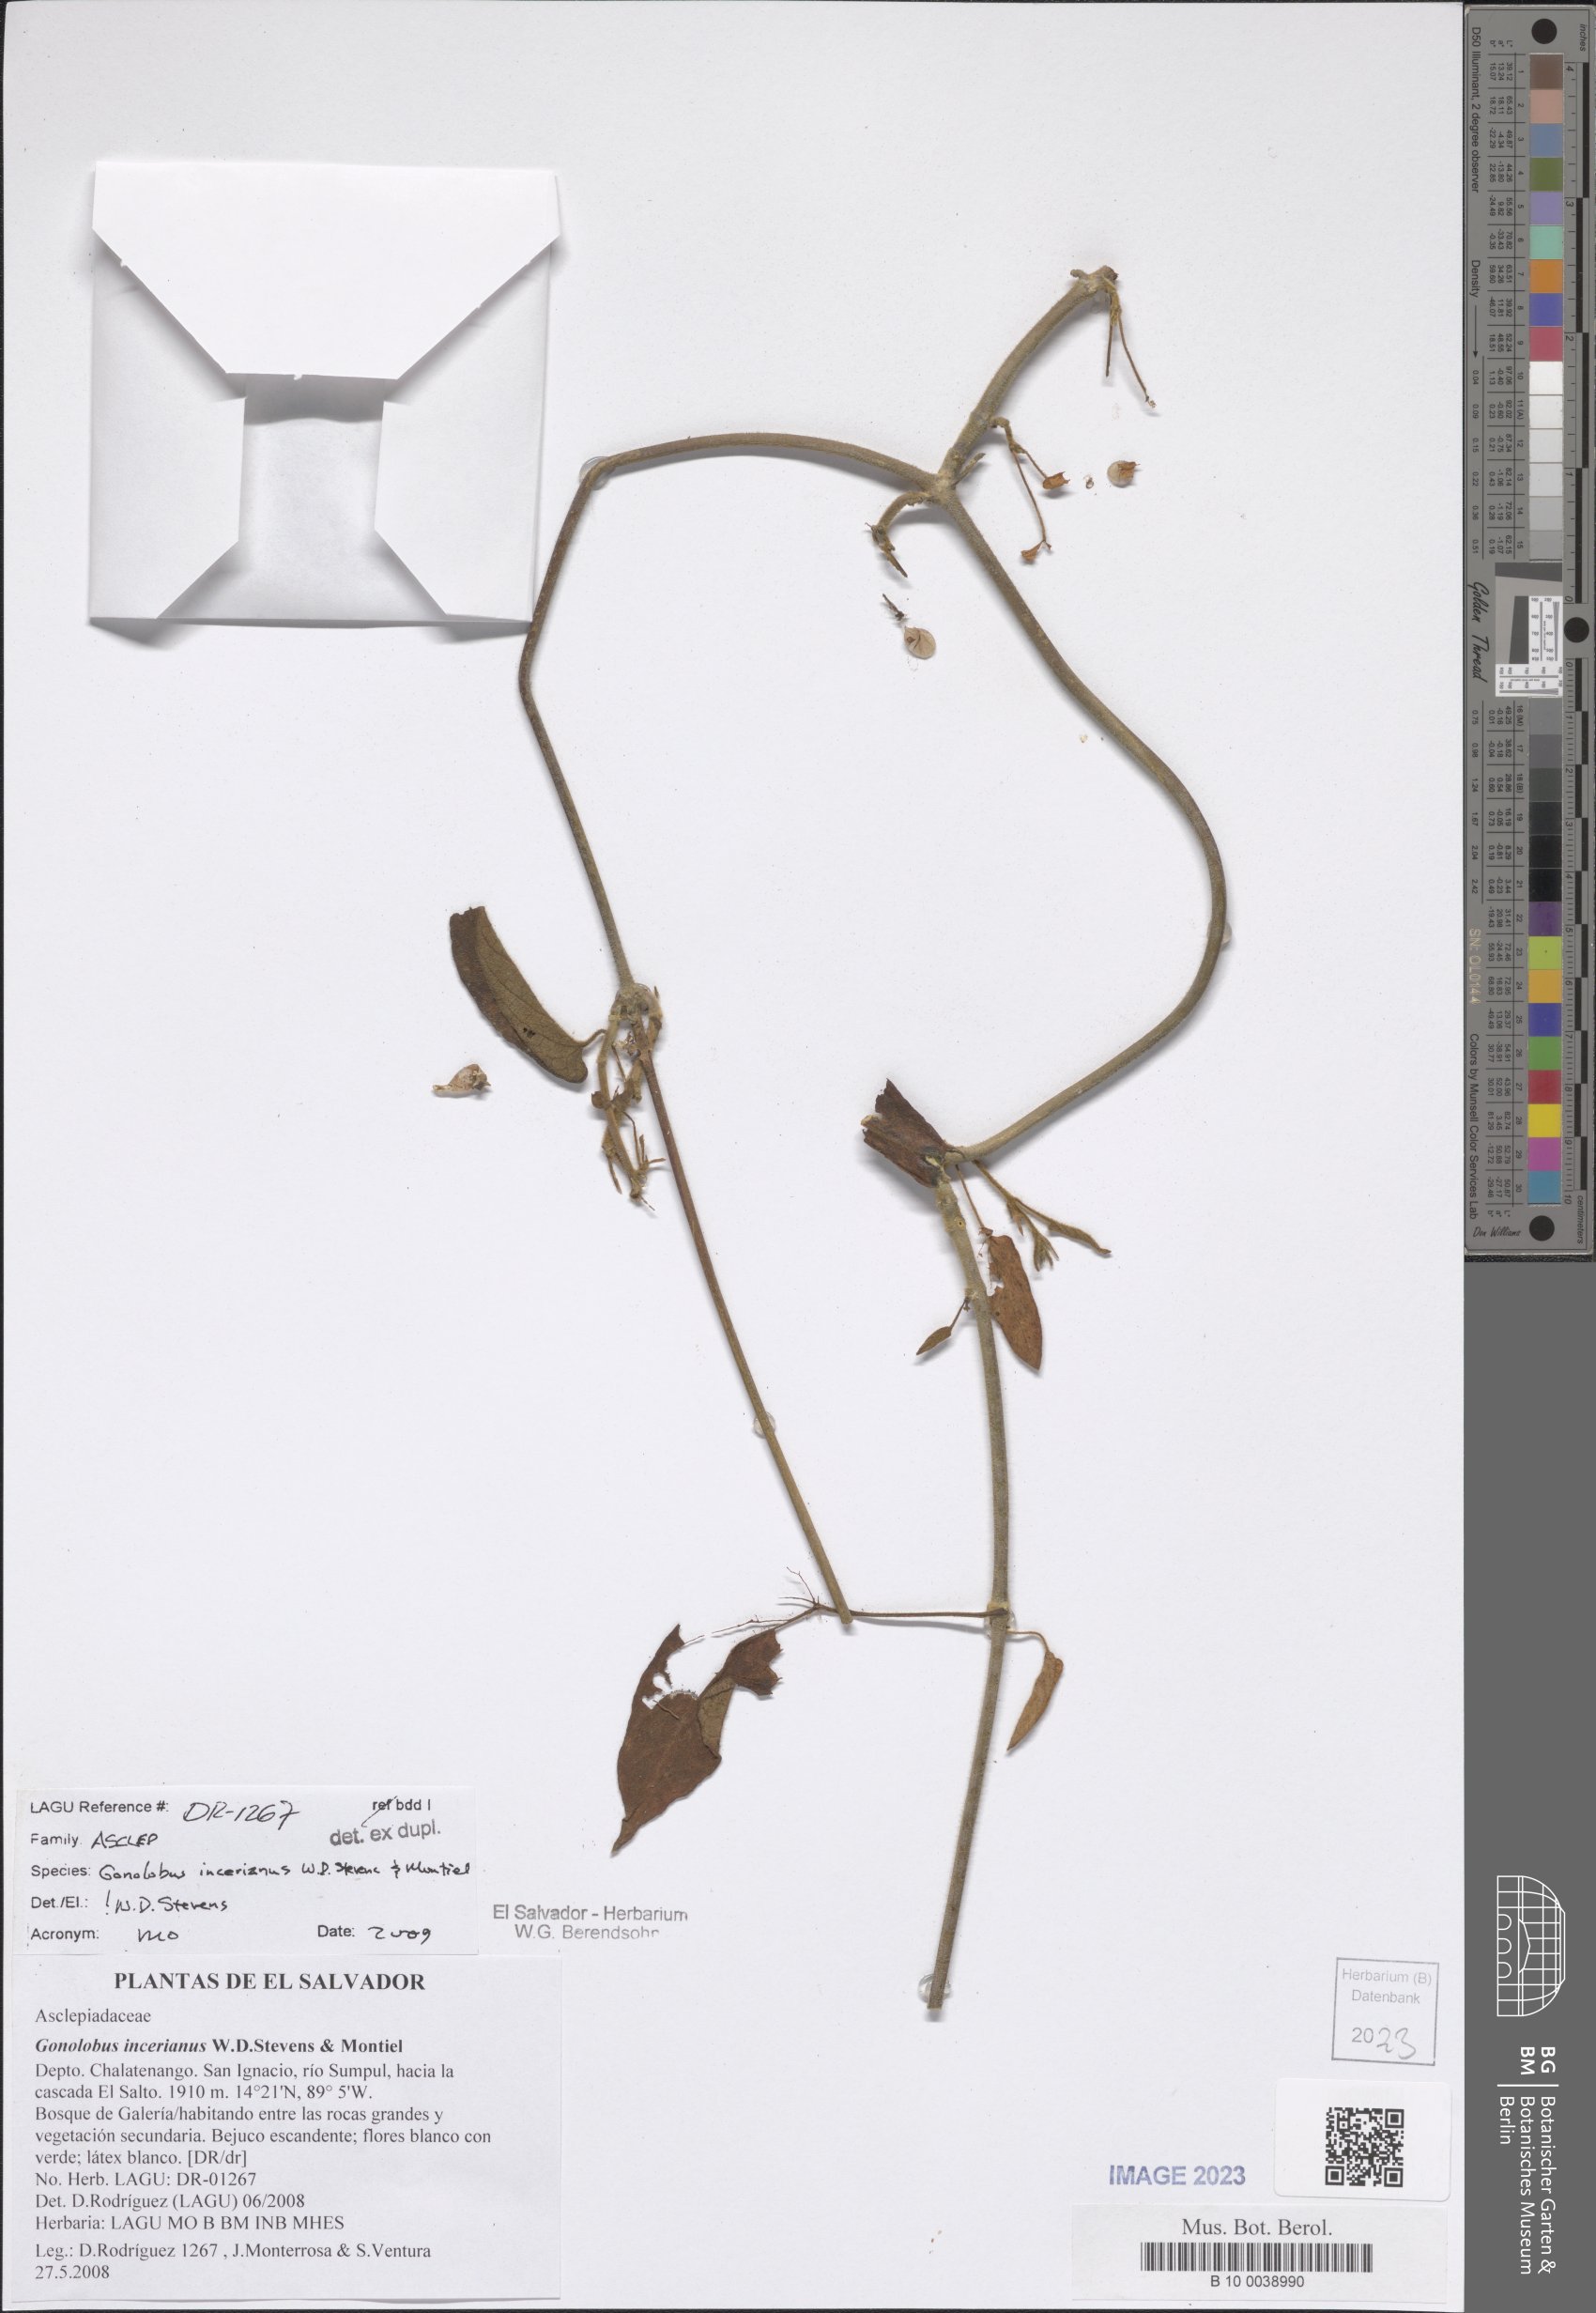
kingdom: Plantae
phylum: Tracheophyta
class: Magnoliopsida
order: Gentianales
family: Apocynaceae
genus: Gonolobus
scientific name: Gonolobus incerianus
